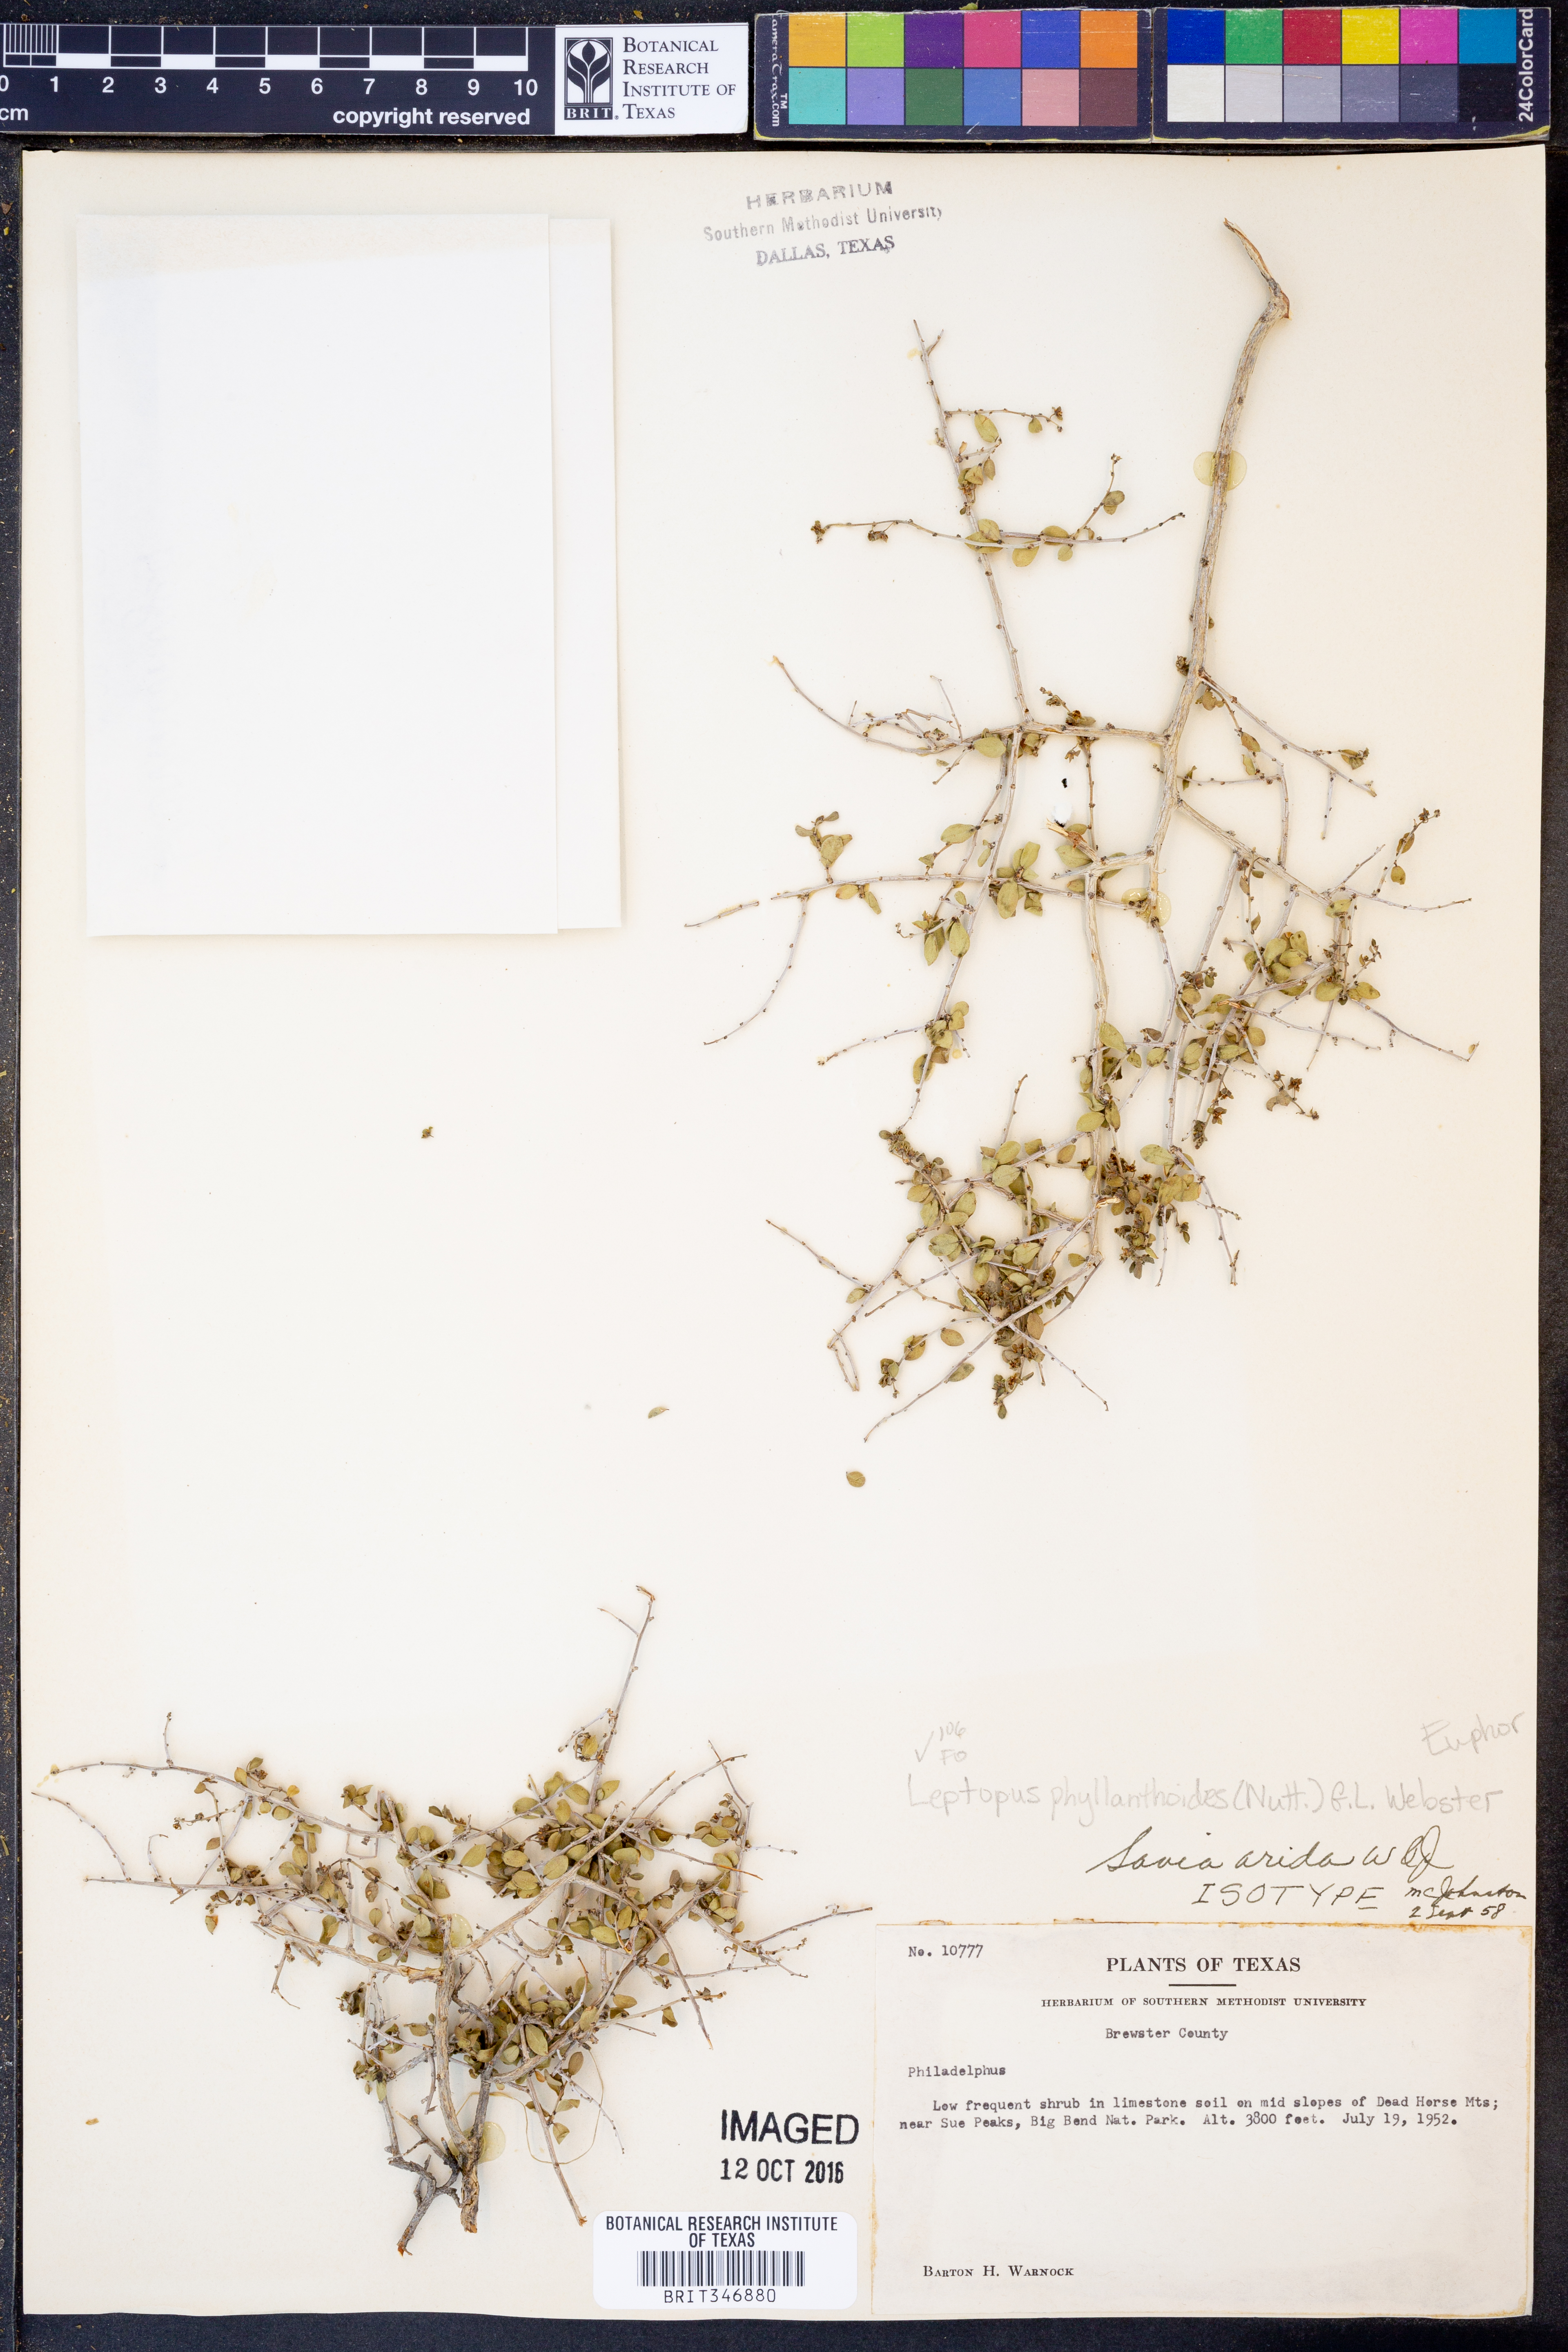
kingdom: Plantae
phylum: Tracheophyta
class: Magnoliopsida
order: Malpighiales
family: Phyllanthaceae
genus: Phyllanthopsis
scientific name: Phyllanthopsis phyllanthoides
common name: Missouri maidenbush
